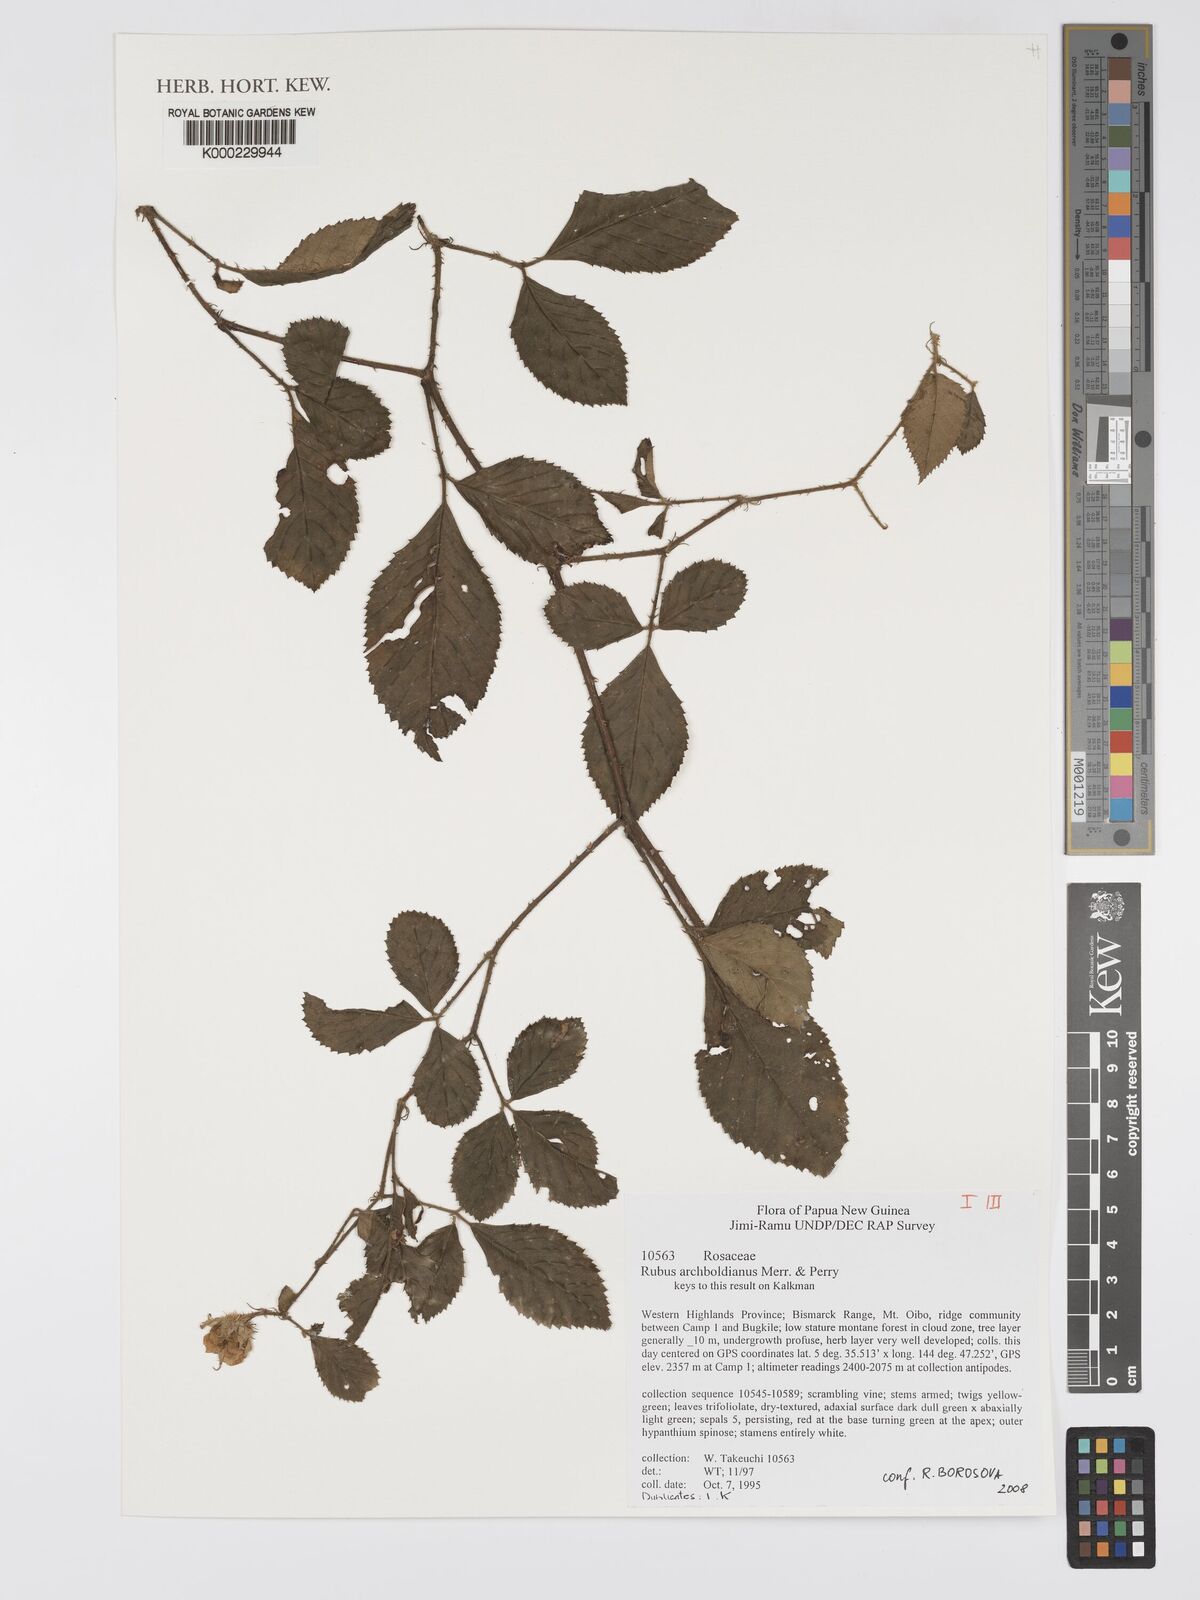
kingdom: Plantae
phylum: Tracheophyta
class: Magnoliopsida
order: Rosales
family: Rosaceae
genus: Rubus
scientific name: Rubus archboldianus
